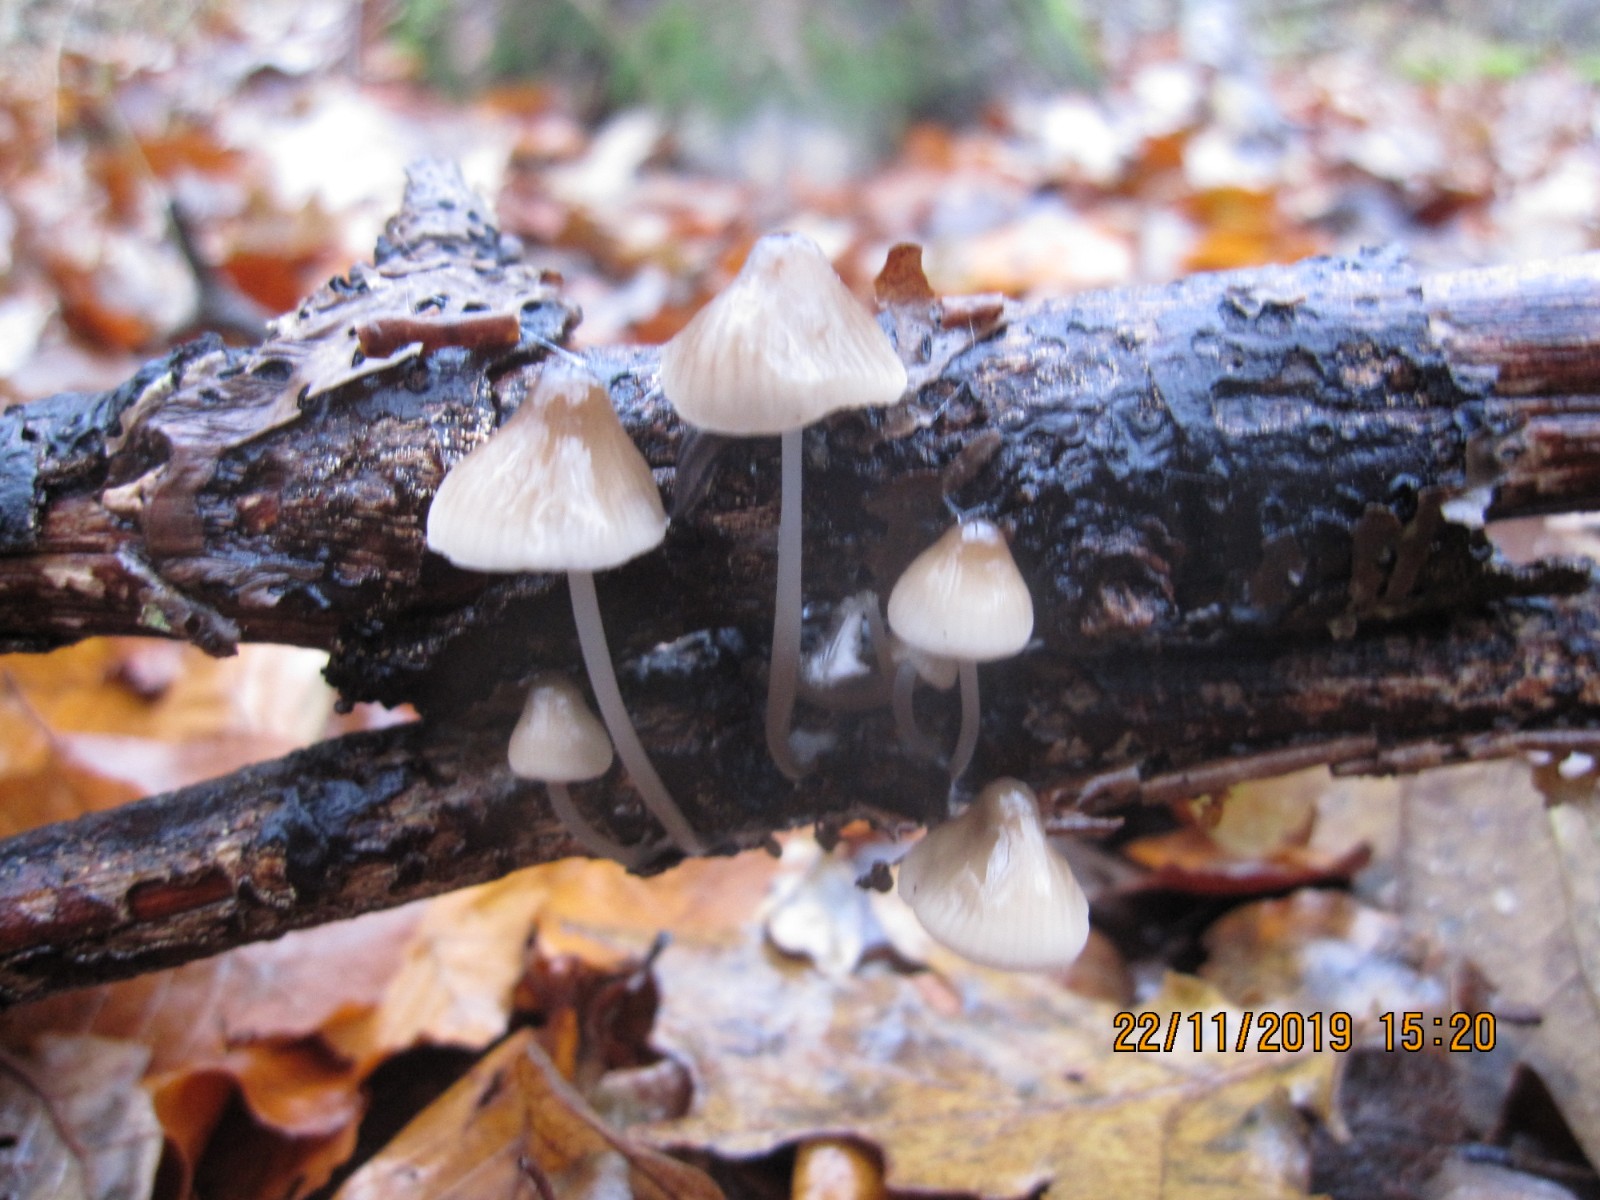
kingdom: Fungi
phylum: Basidiomycota
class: Agaricomycetes
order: Agaricales
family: Mycenaceae
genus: Mycena
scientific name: Mycena vitilis
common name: blankstokket huesvamp
